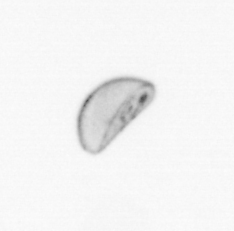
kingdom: Chromista
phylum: Ochrophyta
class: Bacillariophyceae
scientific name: Bacillariophyceae
